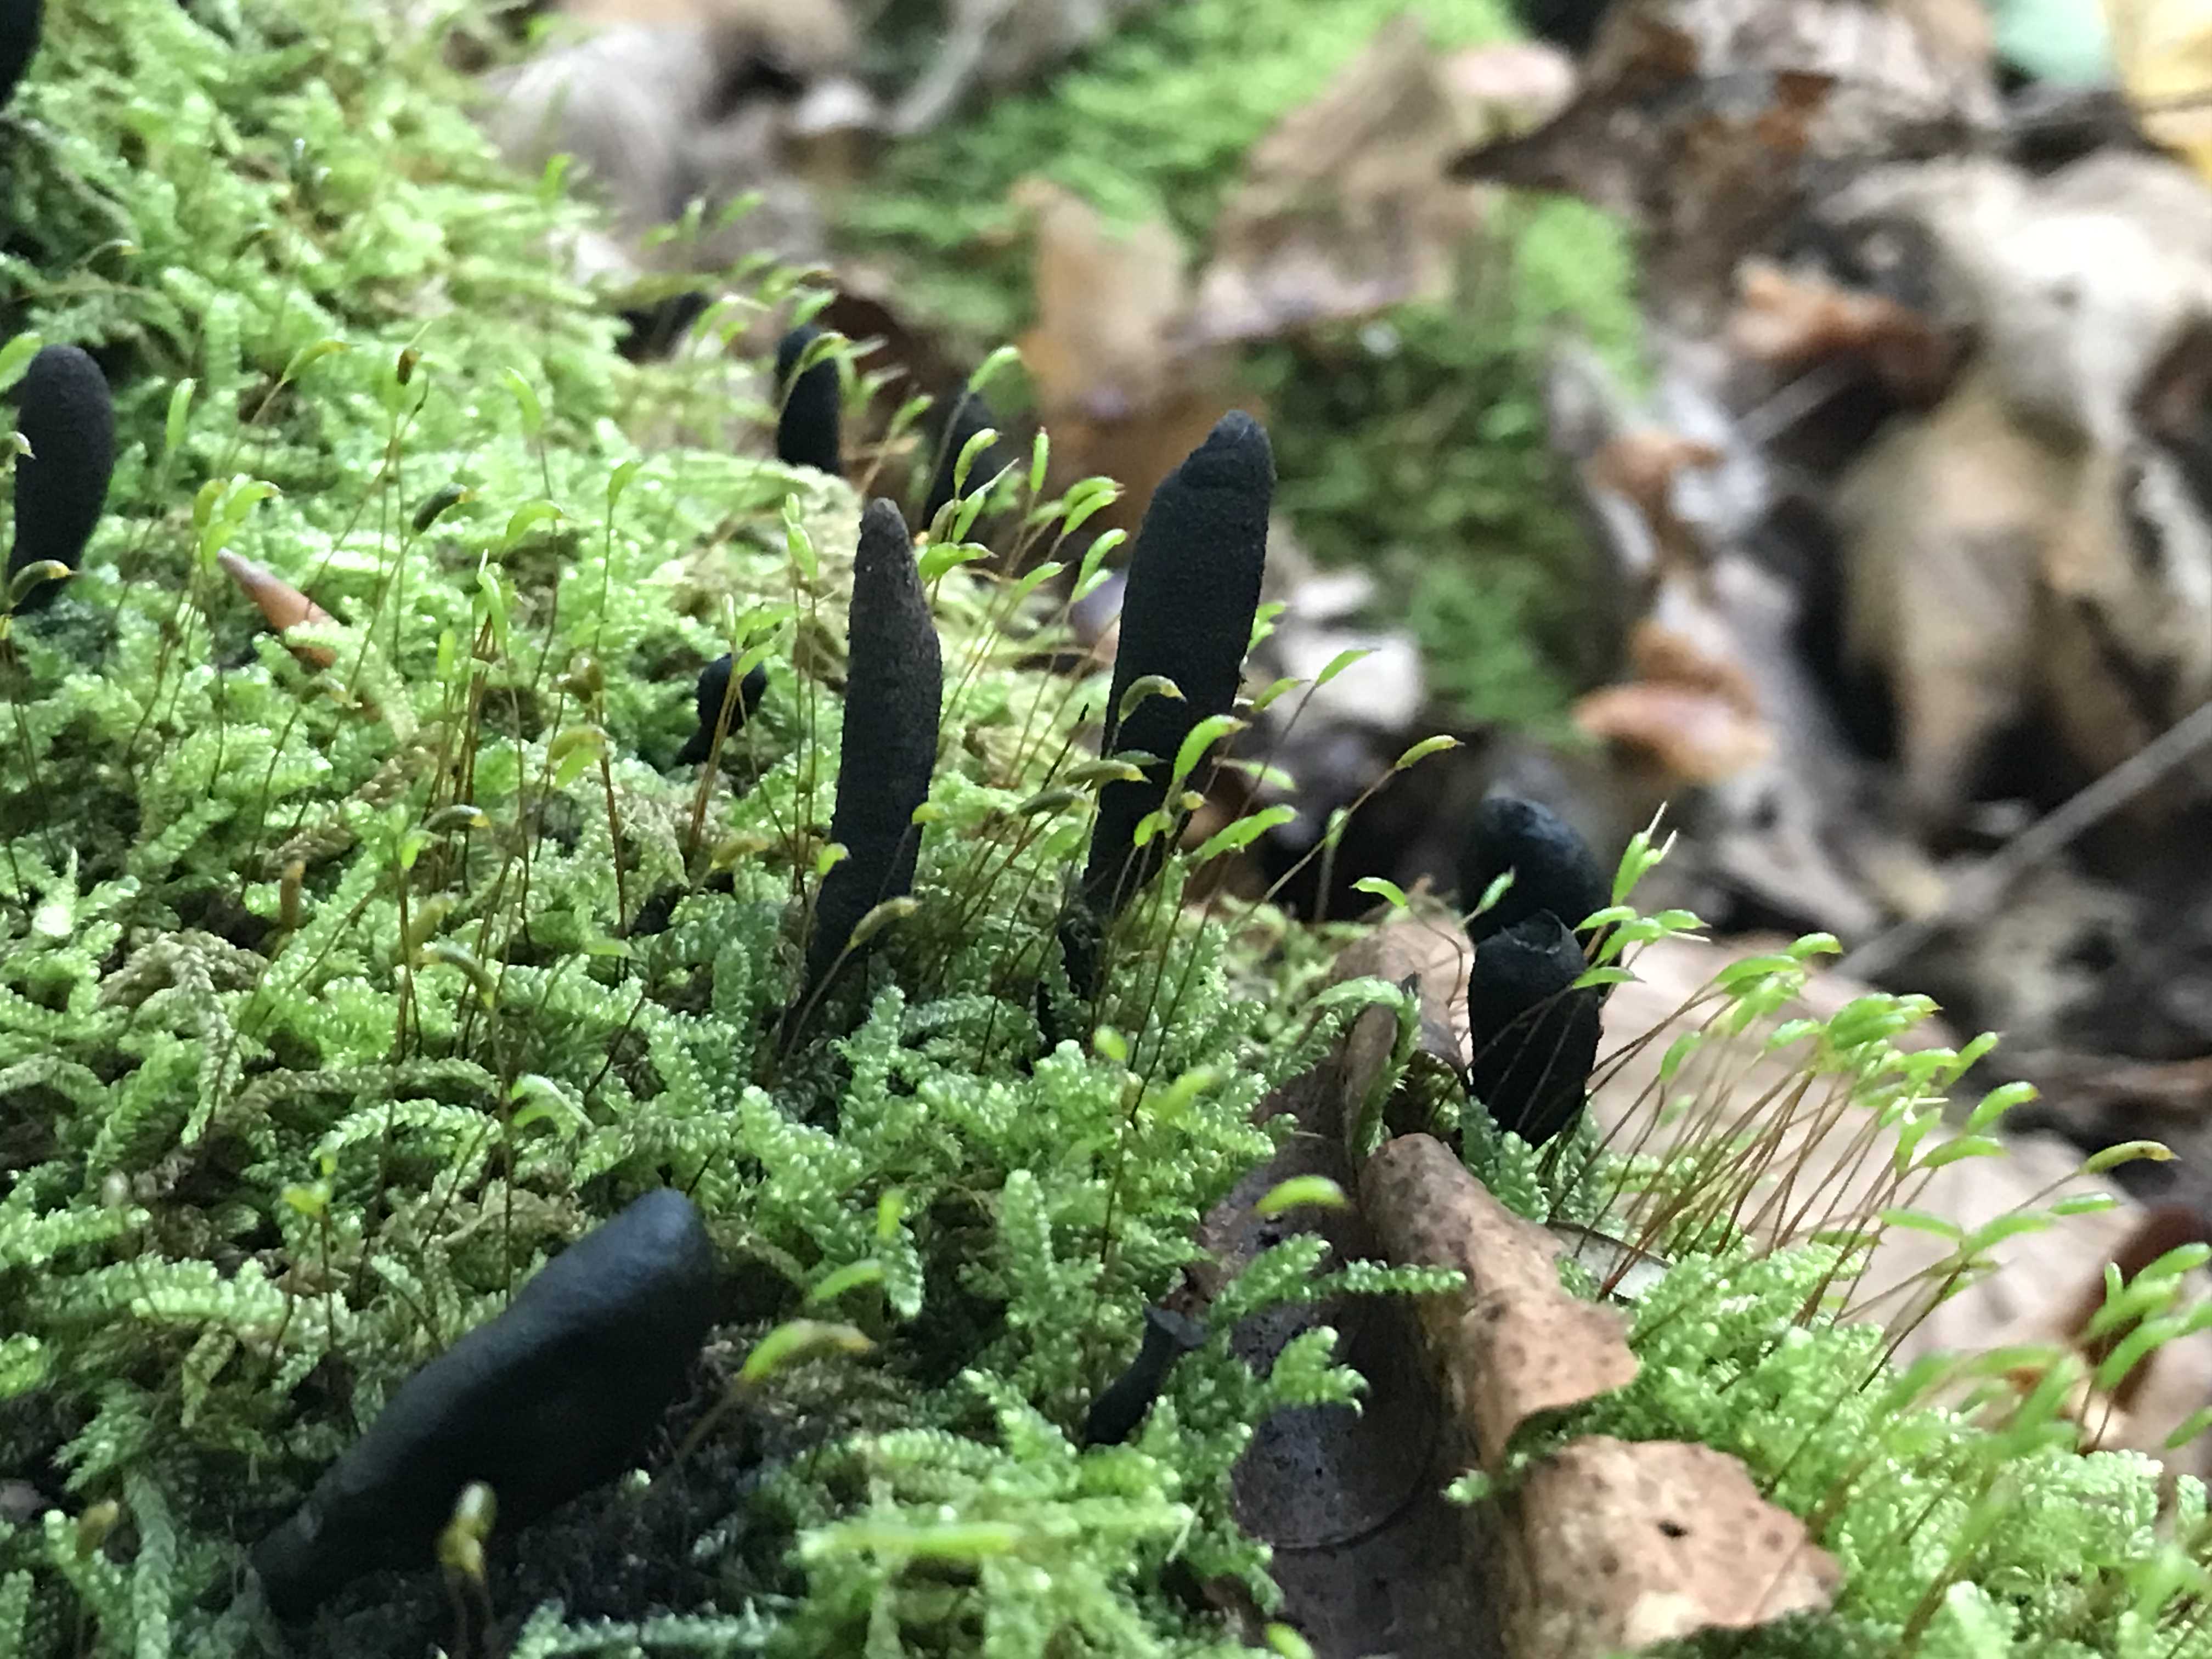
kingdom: Fungi
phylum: Ascomycota
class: Sordariomycetes
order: Xylariales
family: Xylariaceae
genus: Xylaria
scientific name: Xylaria longipes
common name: slank stødsvamp
